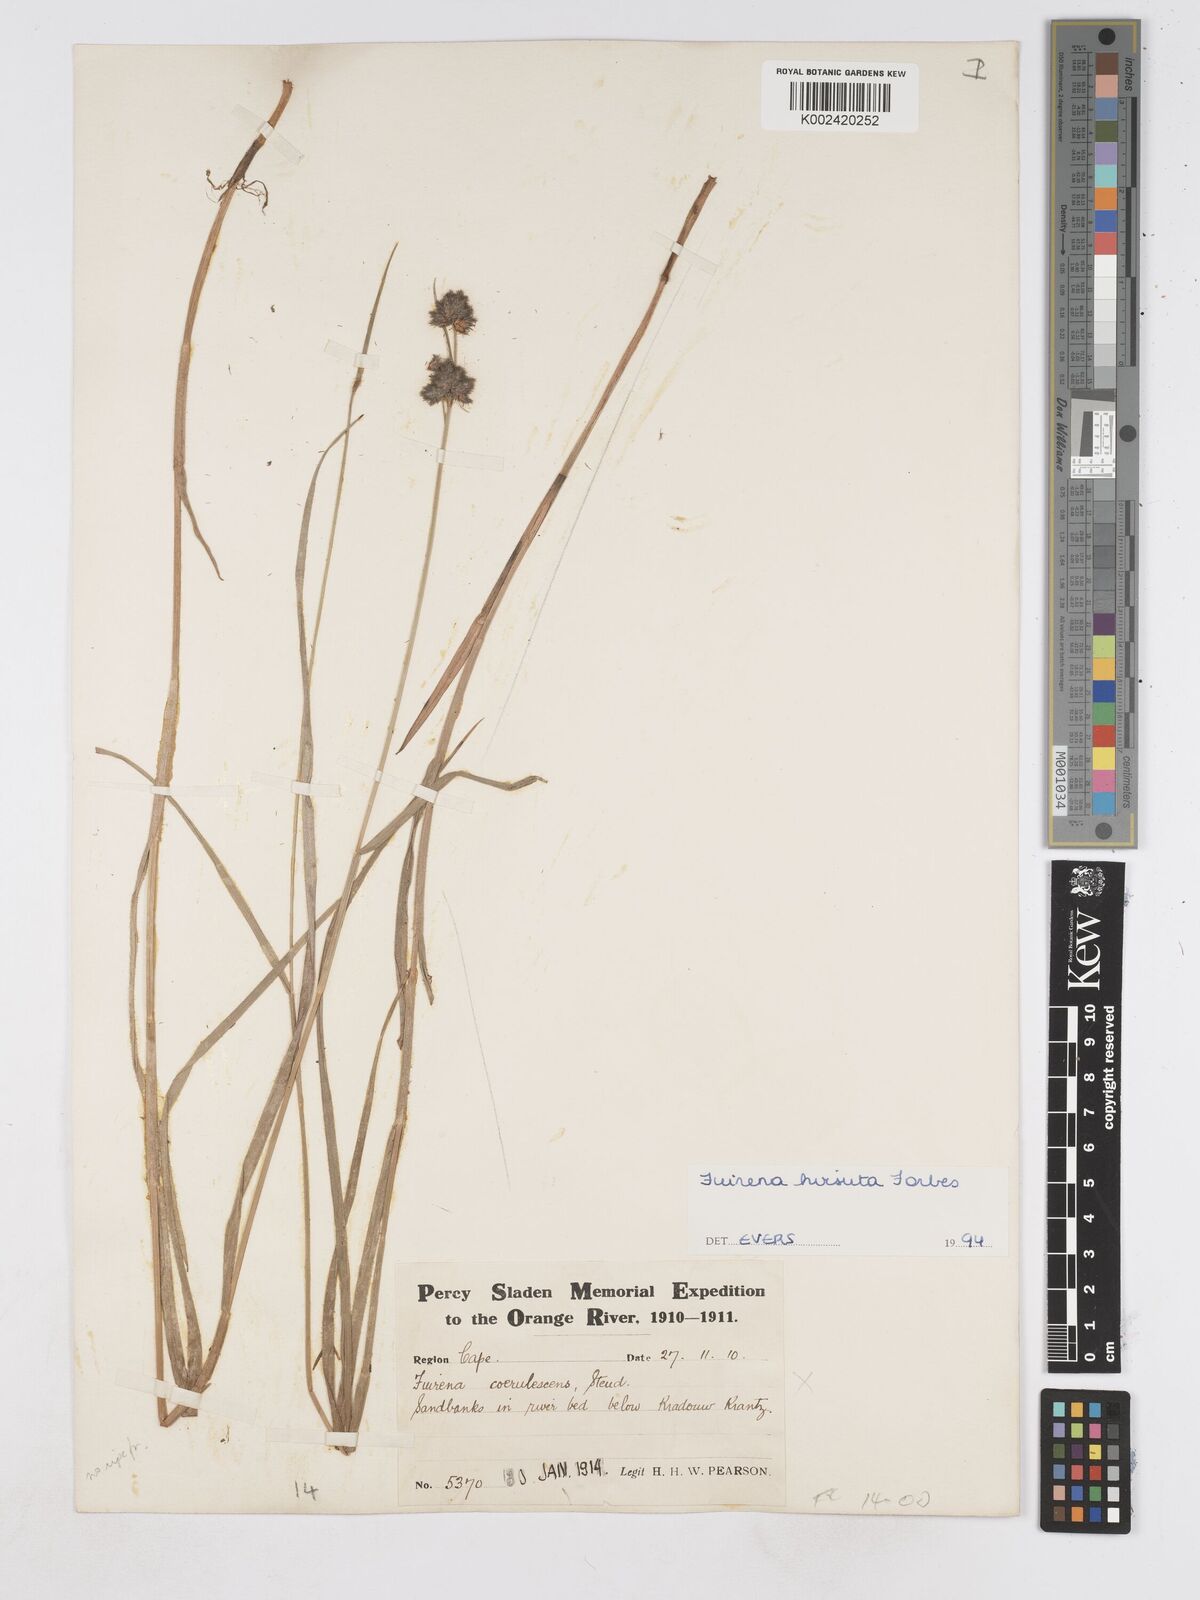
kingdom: Plantae
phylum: Tracheophyta
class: Liliopsida
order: Poales
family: Cyperaceae
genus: Fuirena
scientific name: Fuirena hirsuta
